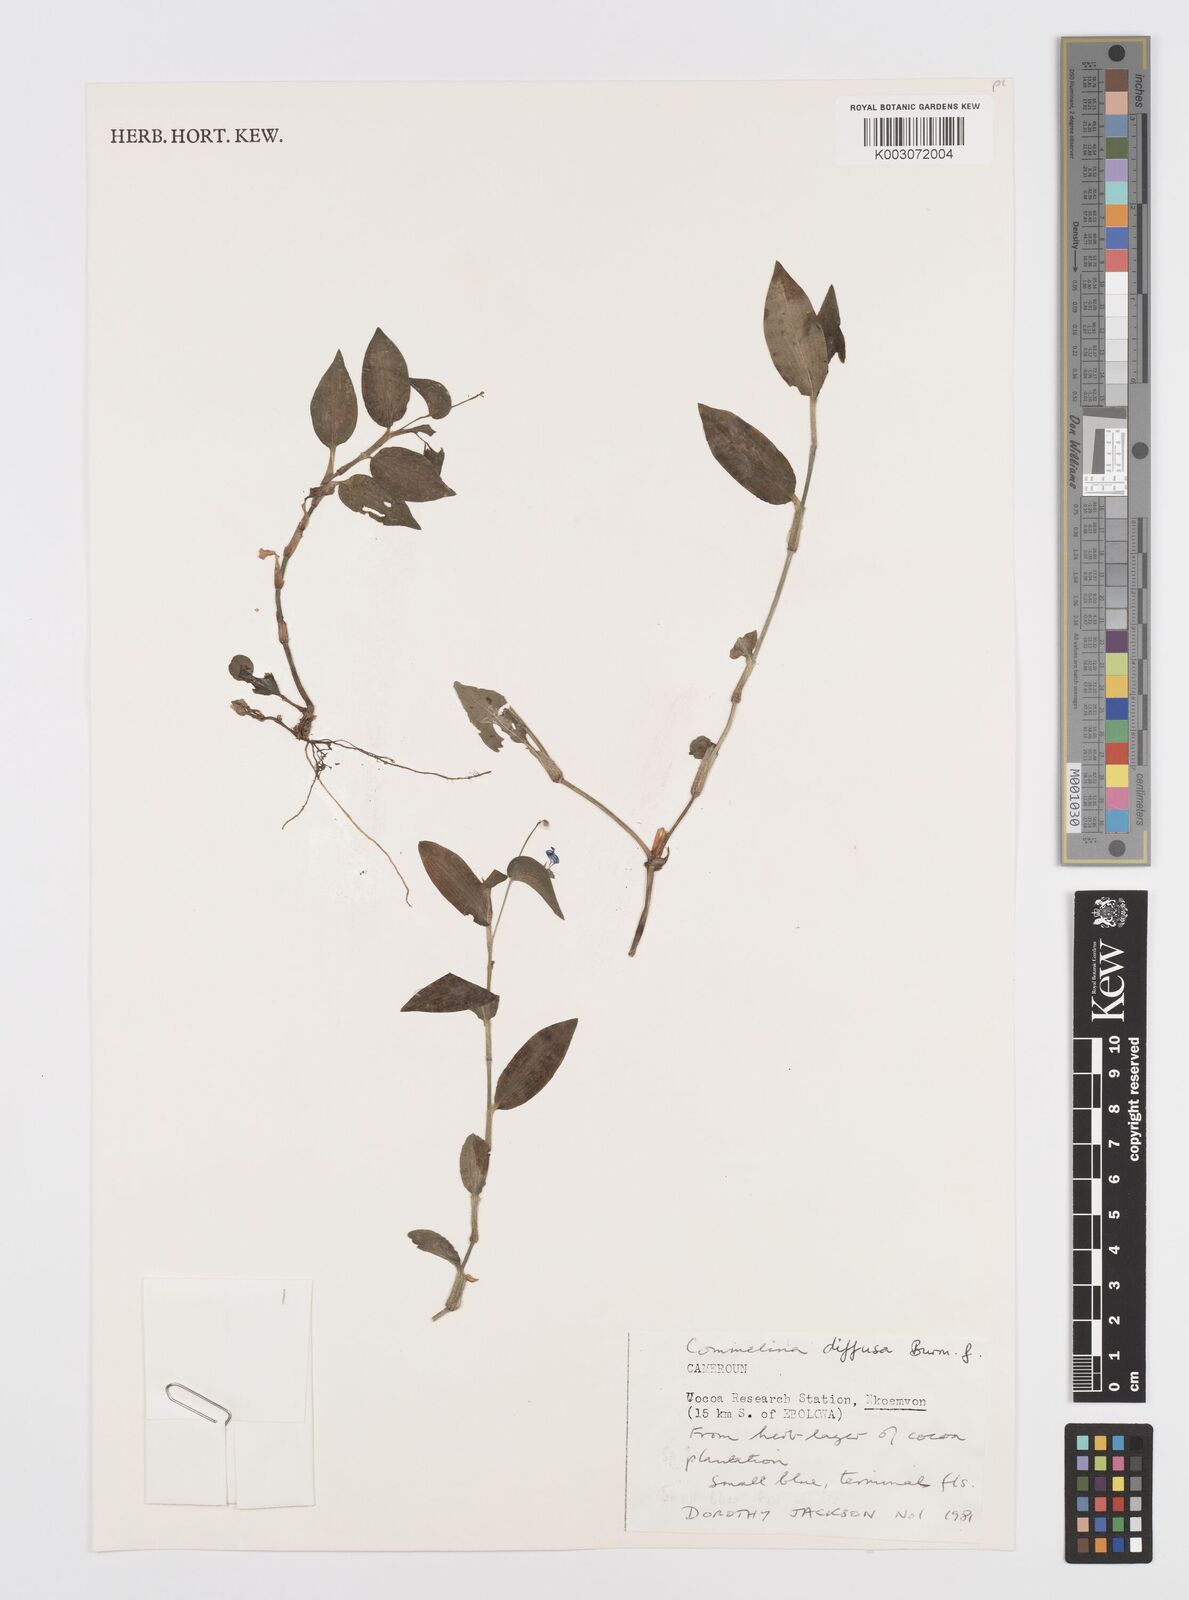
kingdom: Plantae
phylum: Tracheophyta
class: Liliopsida
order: Commelinales
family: Commelinaceae
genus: Commelina
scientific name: Commelina diffusa
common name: Climbing dayflower
